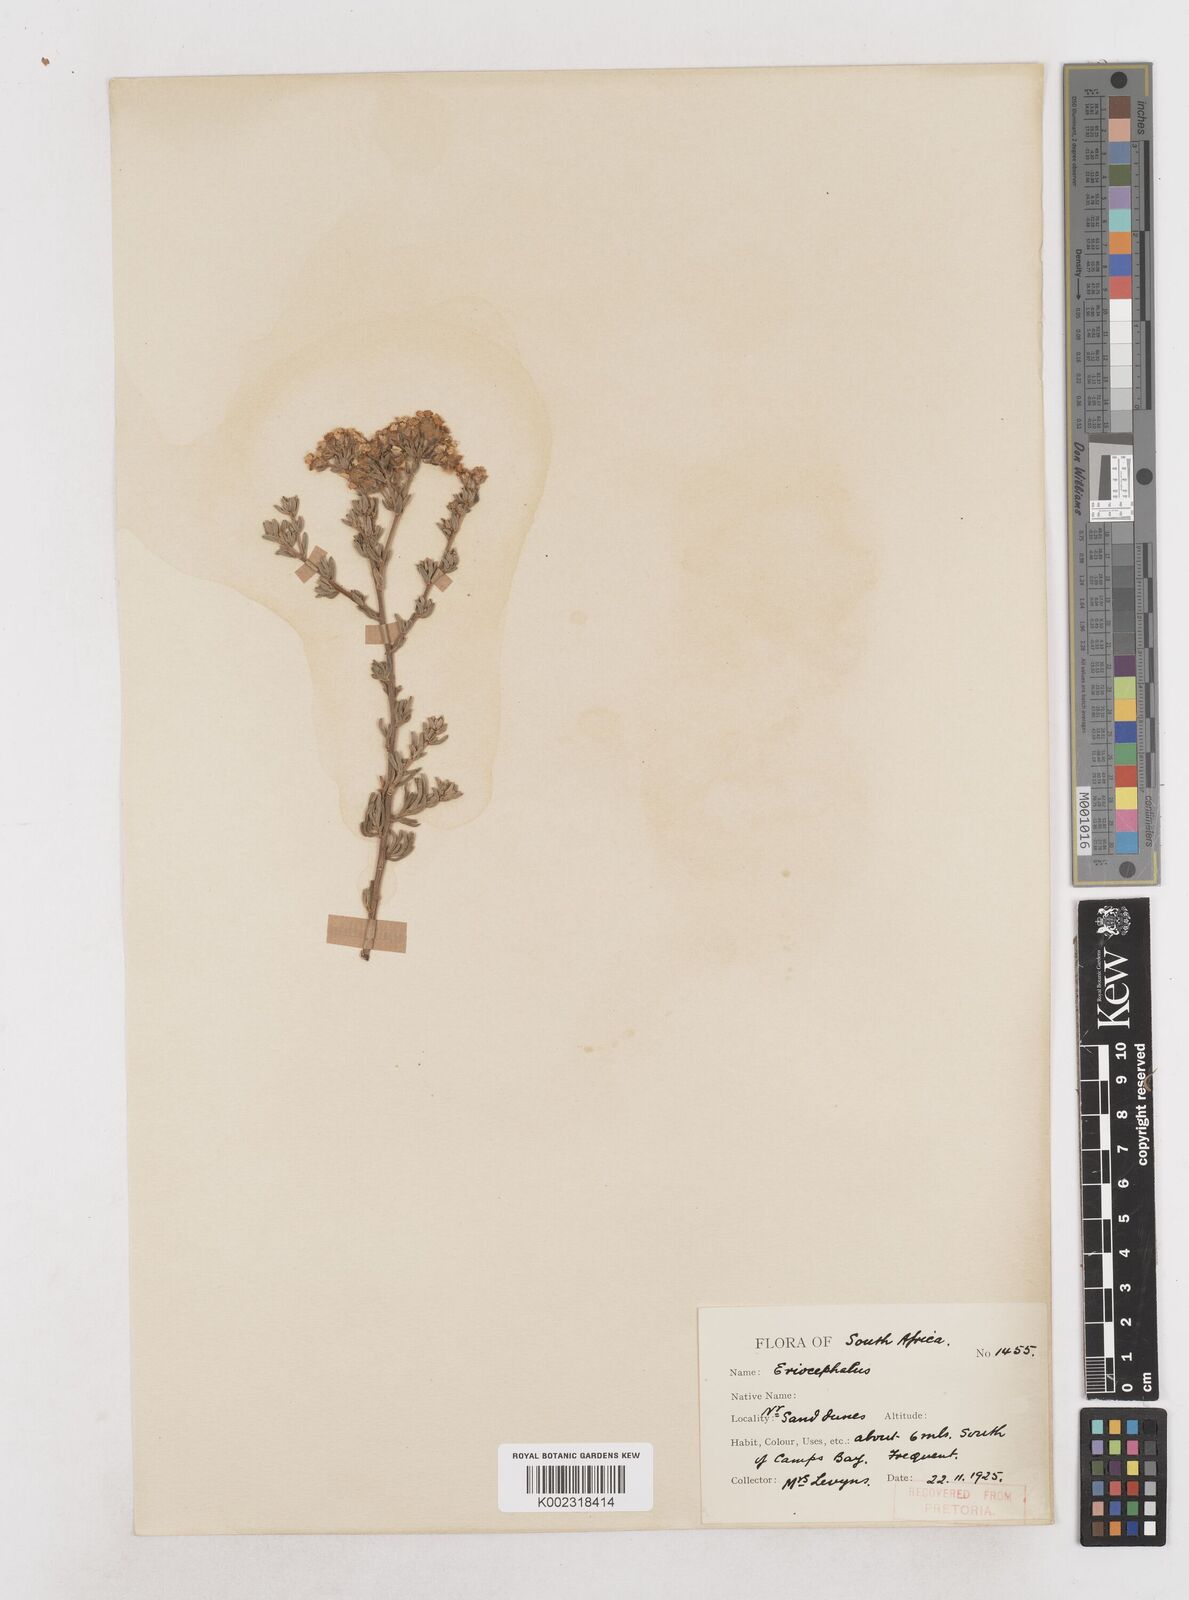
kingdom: Plantae
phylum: Tracheophyta
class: Magnoliopsida
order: Asterales
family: Asteraceae
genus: Eriocephalus
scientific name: Eriocephalus
